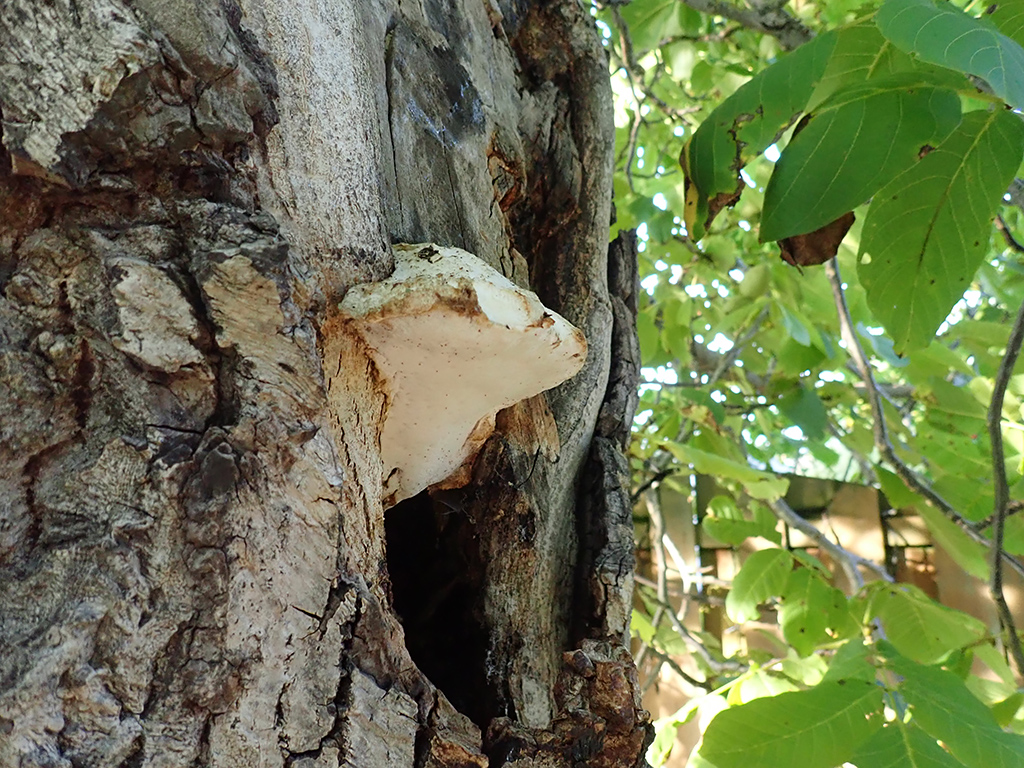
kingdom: Fungi
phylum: Basidiomycota
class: Agaricomycetes
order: Polyporales
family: Meruliaceae
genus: Pappia
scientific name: Pappia fissilis
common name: sej fedtporesvamp
